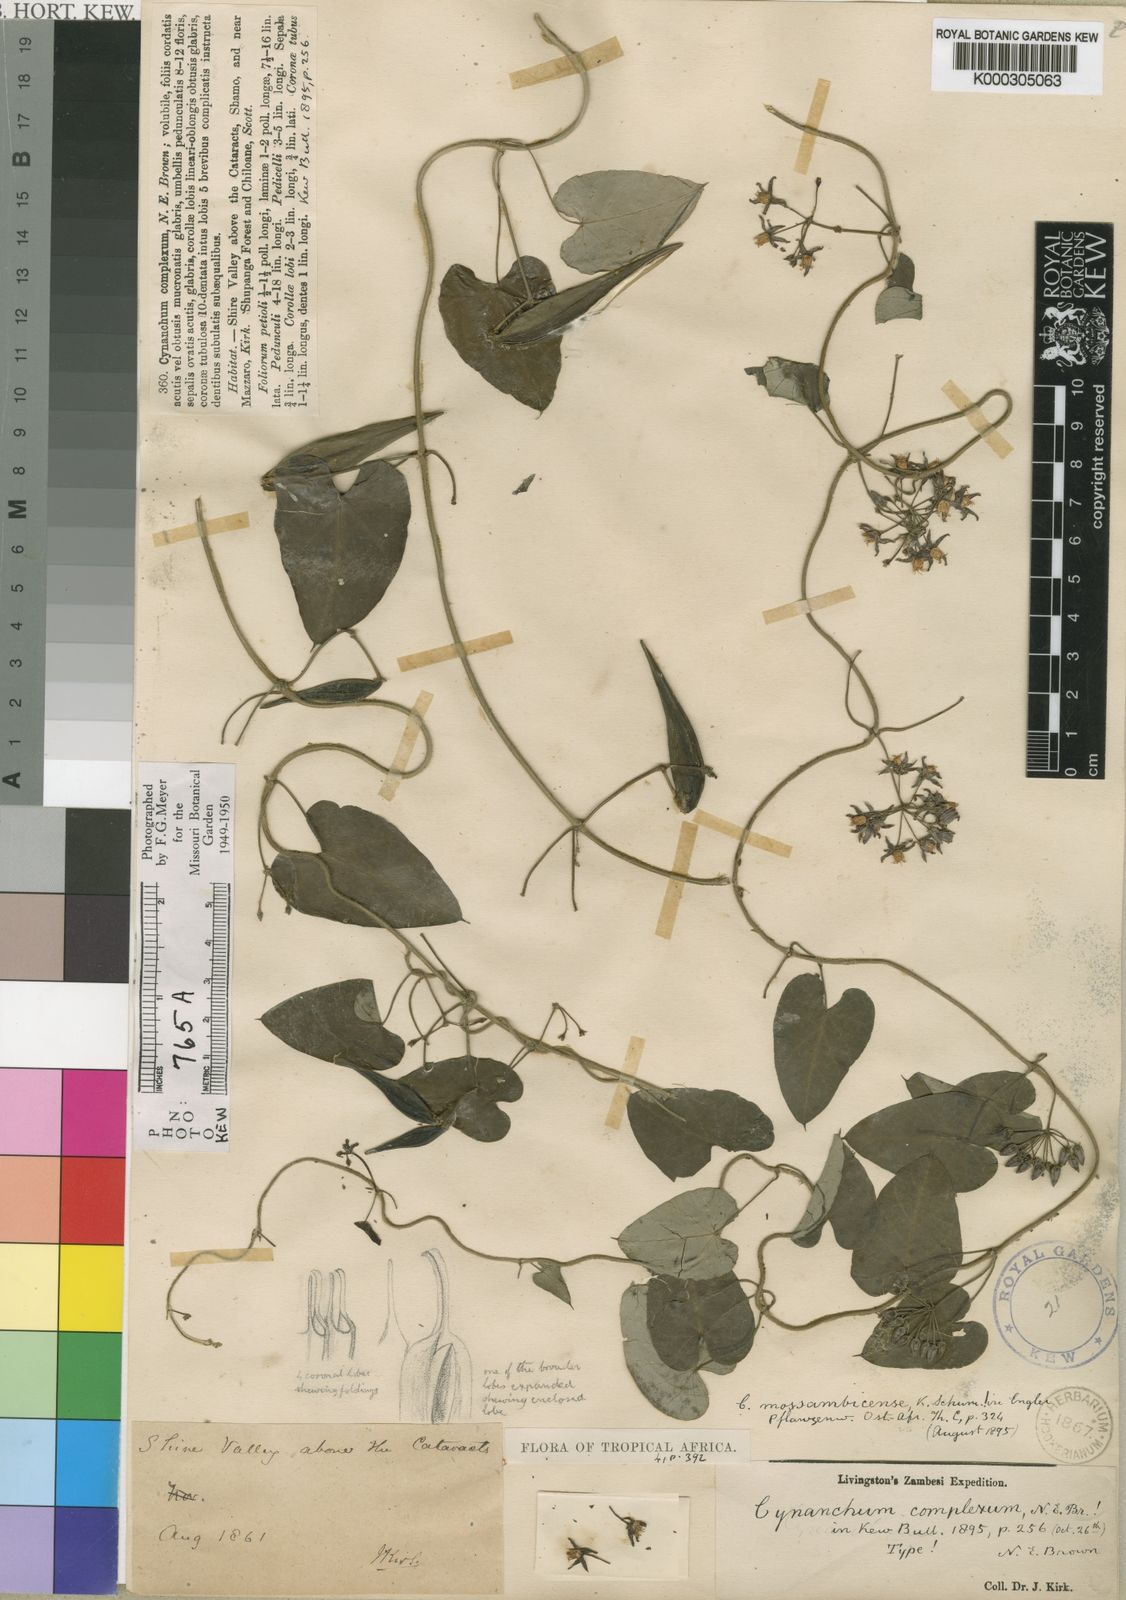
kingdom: Plantae
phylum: Tracheophyta
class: Magnoliopsida
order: Gentianales
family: Apocynaceae
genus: Cynanchum
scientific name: Cynanchum mossambicense
